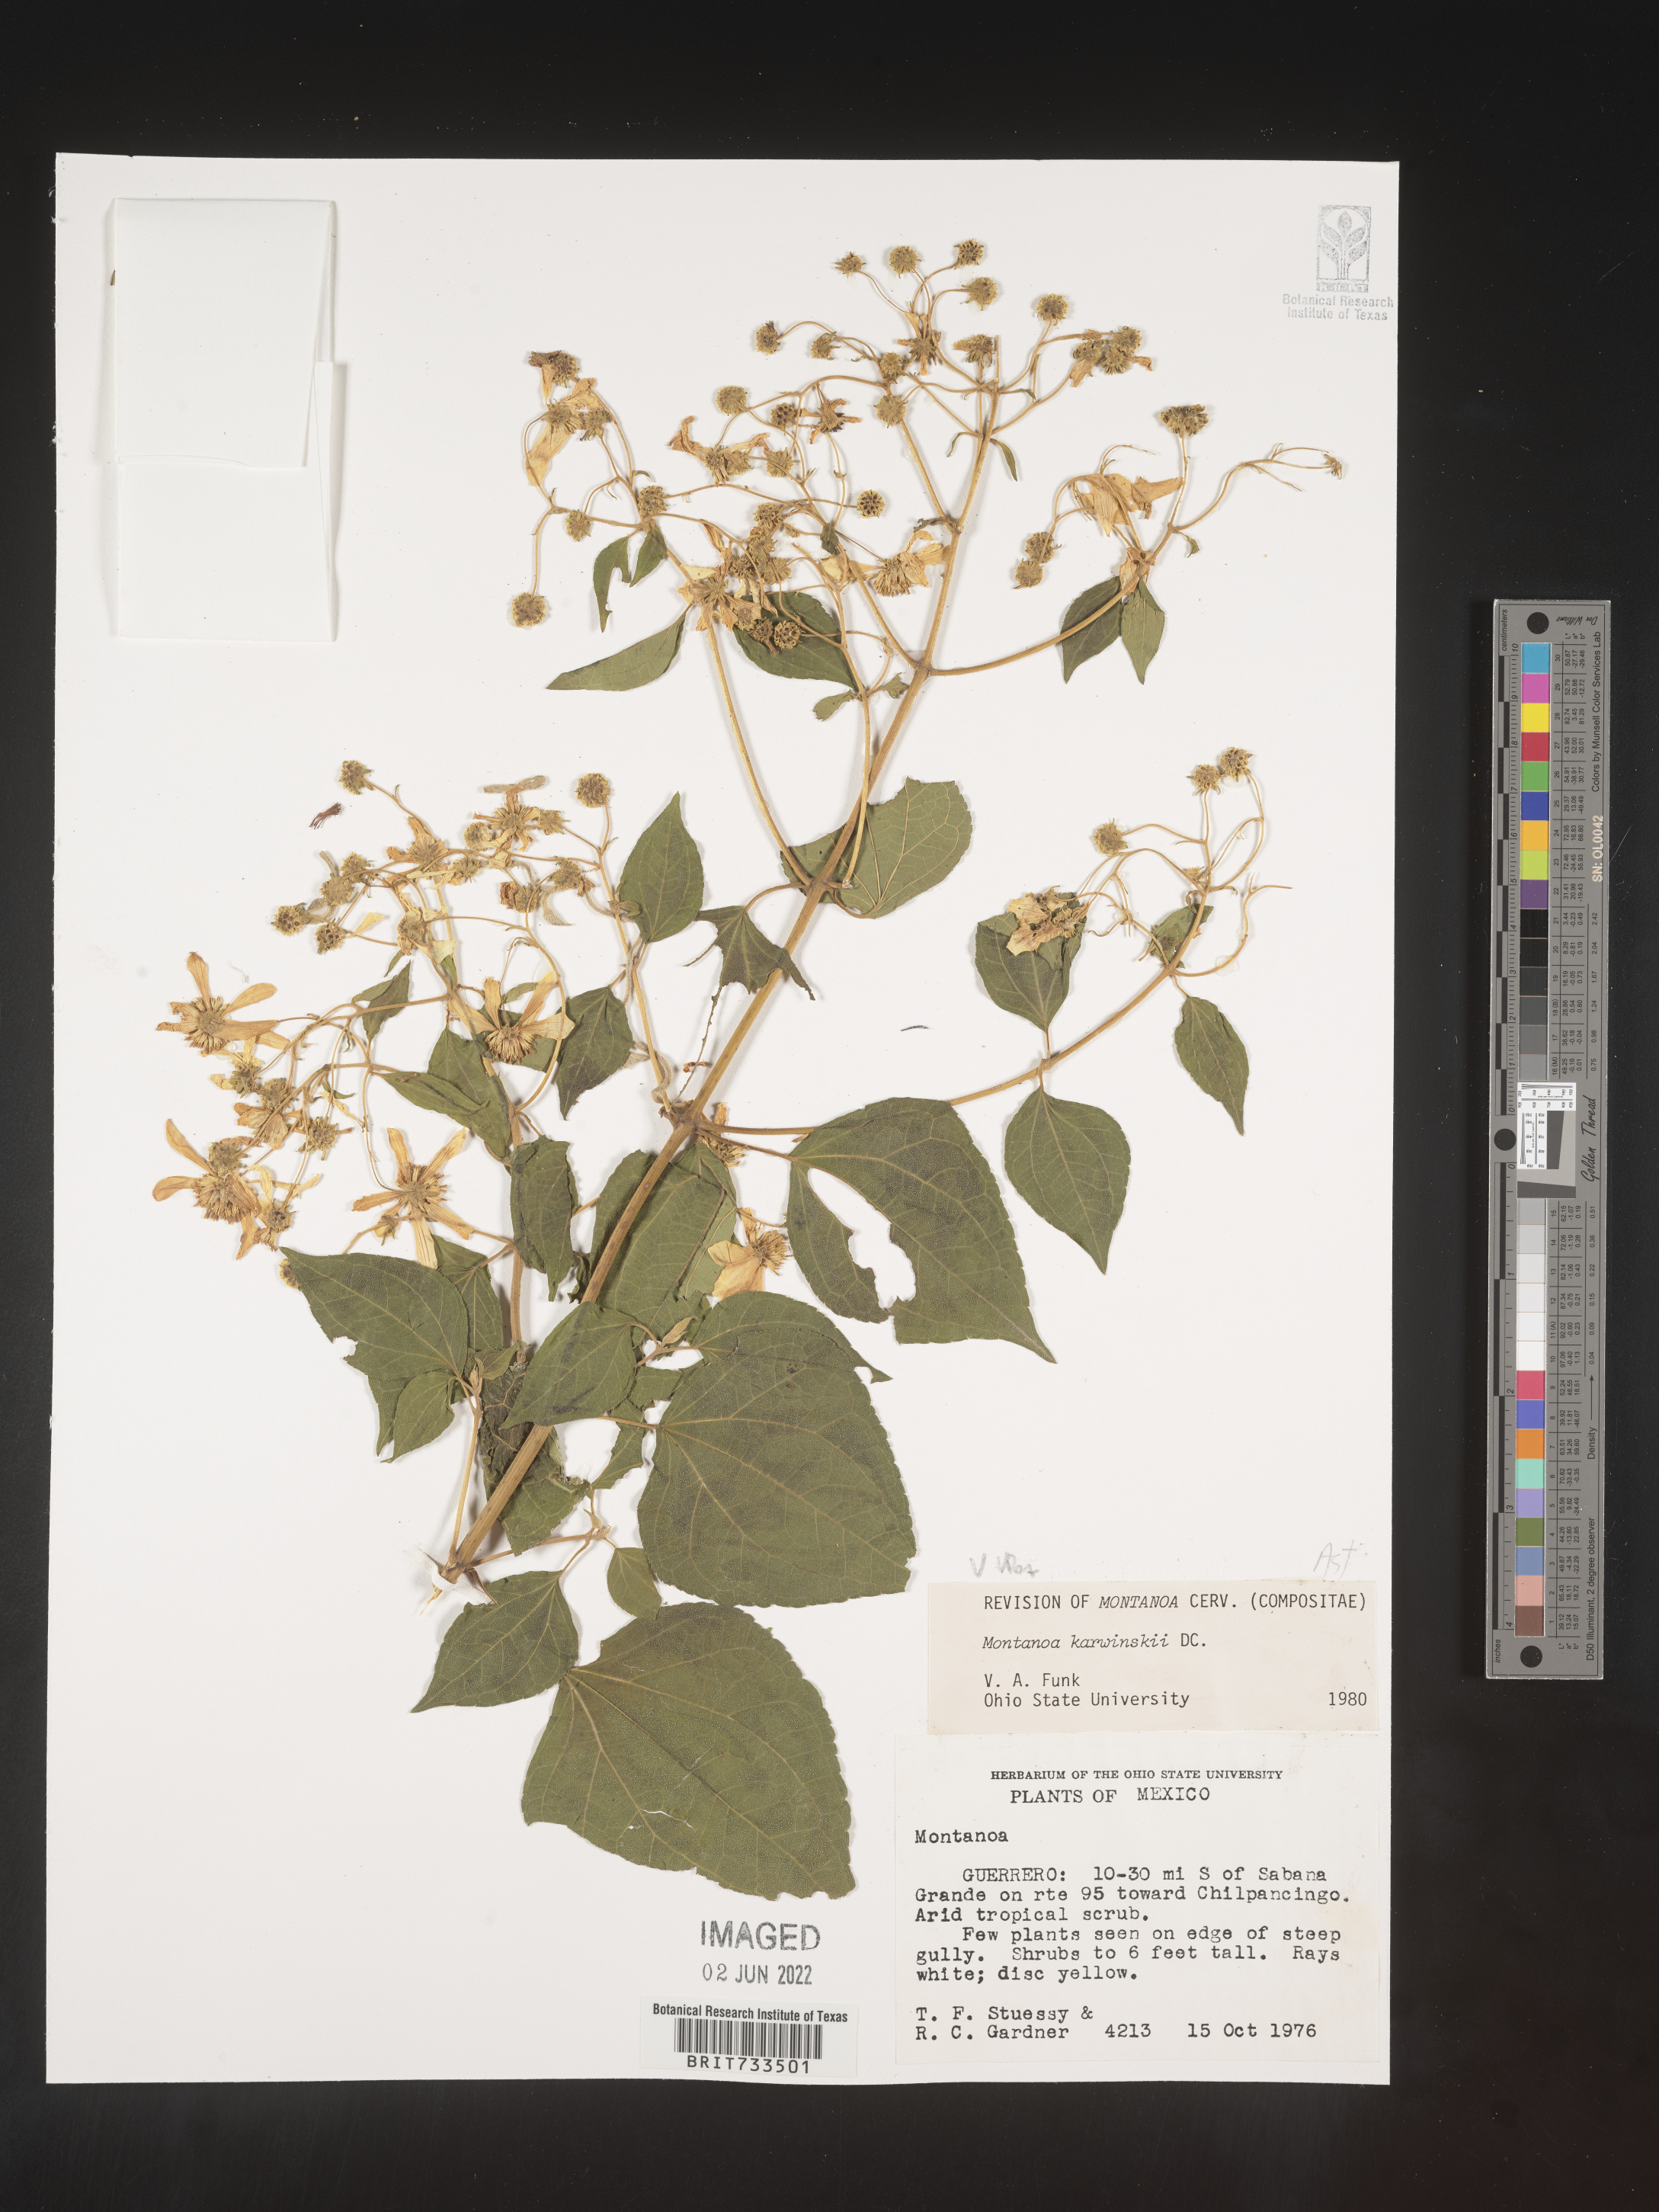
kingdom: Plantae
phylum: Tracheophyta
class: Magnoliopsida
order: Asterales
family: Asteraceae
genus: Montanoa
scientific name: Montanoa
